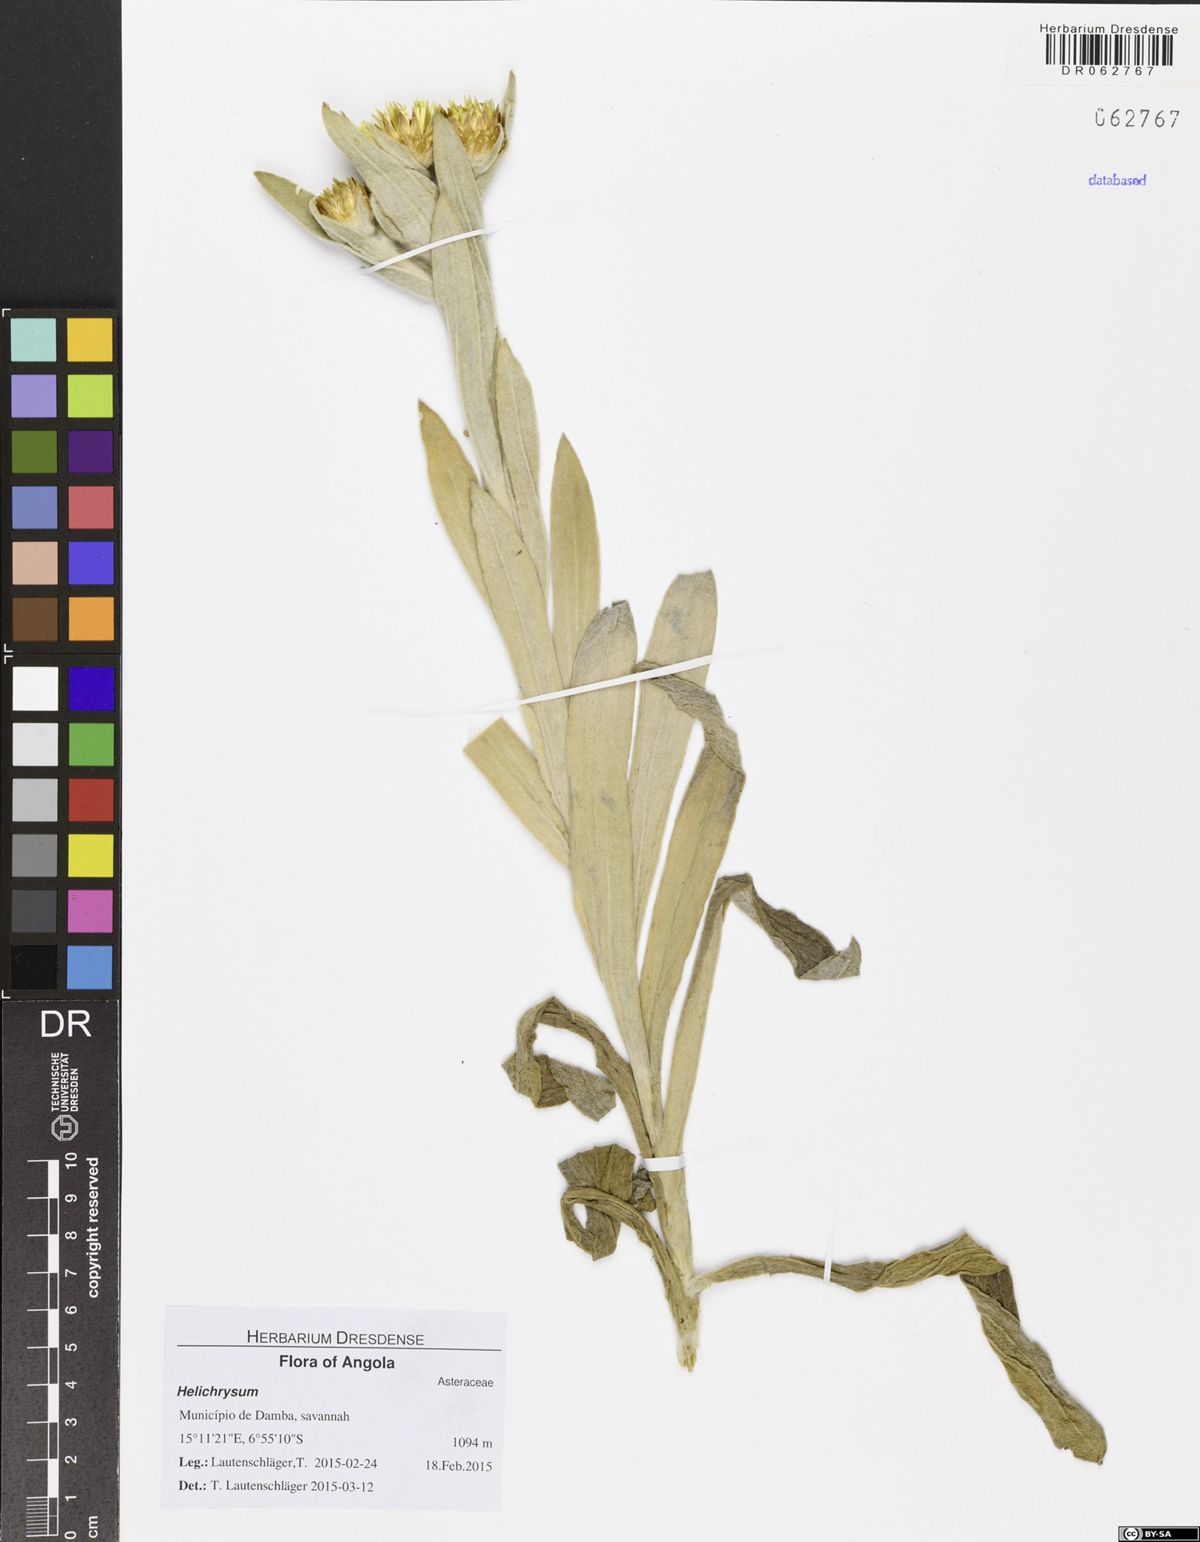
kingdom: Plantae
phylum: Tracheophyta
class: Magnoliopsida
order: Asterales
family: Asteraceae
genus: Helichrysum
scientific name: Helichrysum nitens
